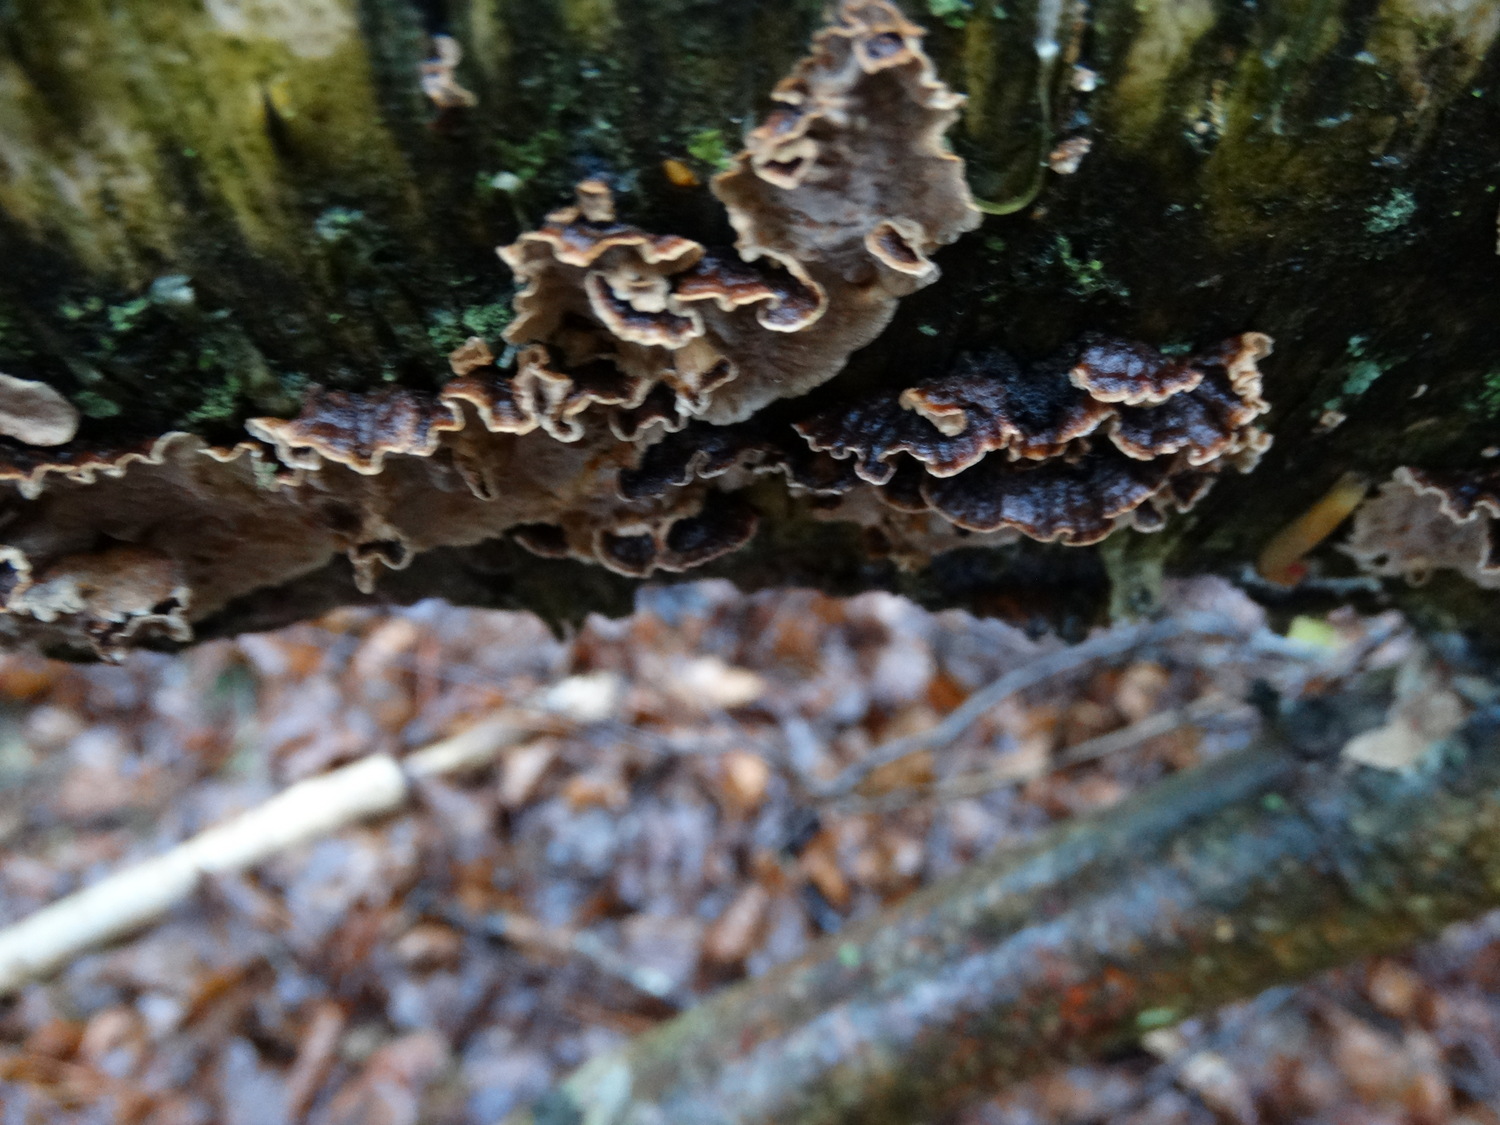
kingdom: Fungi
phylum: Basidiomycota
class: Agaricomycetes
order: Russulales
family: Hericiaceae
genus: Laxitextum
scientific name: Laxitextum bicolor
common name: tvefarvet filtskind
